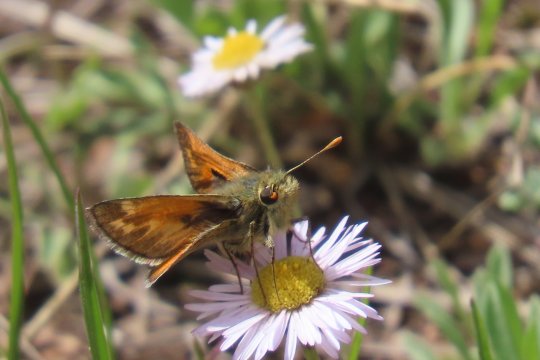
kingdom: Animalia
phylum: Arthropoda
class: Insecta
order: Lepidoptera
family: Hesperiidae
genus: Polites
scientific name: Polites sabuleti
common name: Draco Skipper
